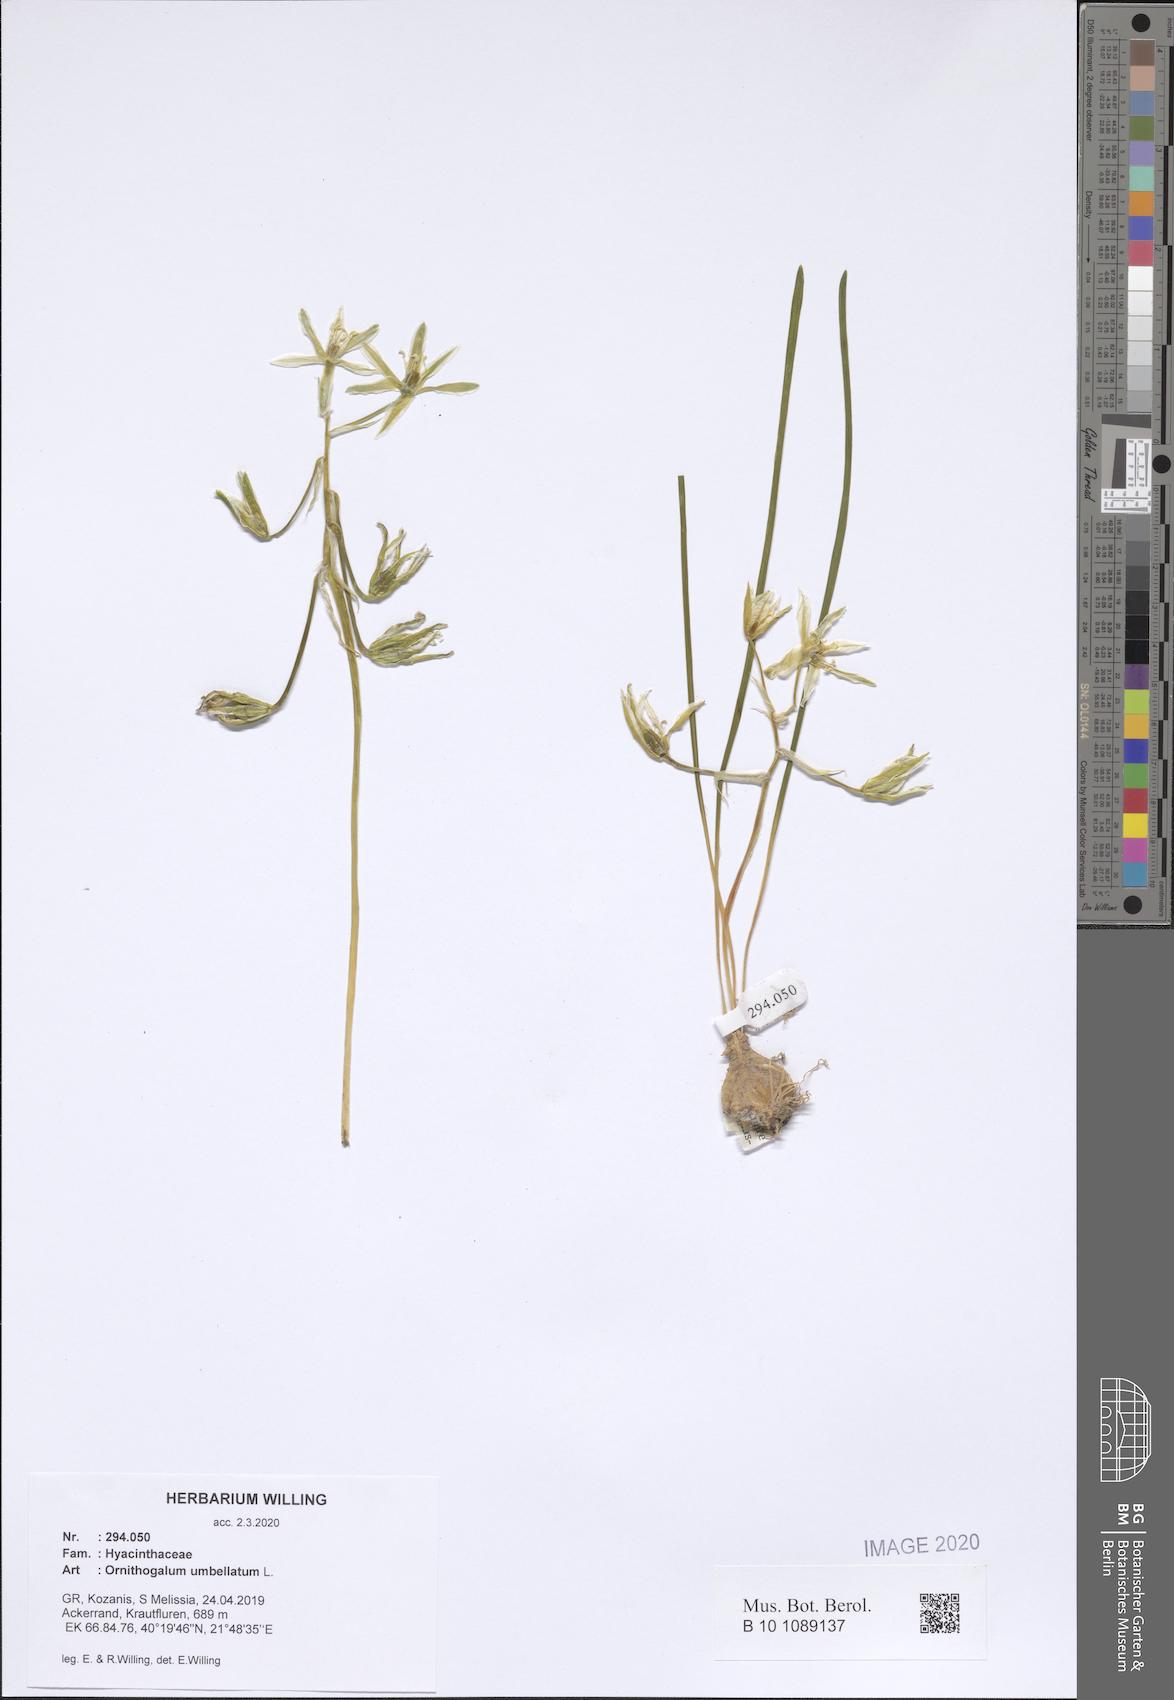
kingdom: Plantae
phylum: Tracheophyta
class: Liliopsida
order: Asparagales
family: Asparagaceae
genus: Ornithogalum
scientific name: Ornithogalum umbellatum
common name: Garden star-of-bethlehem
